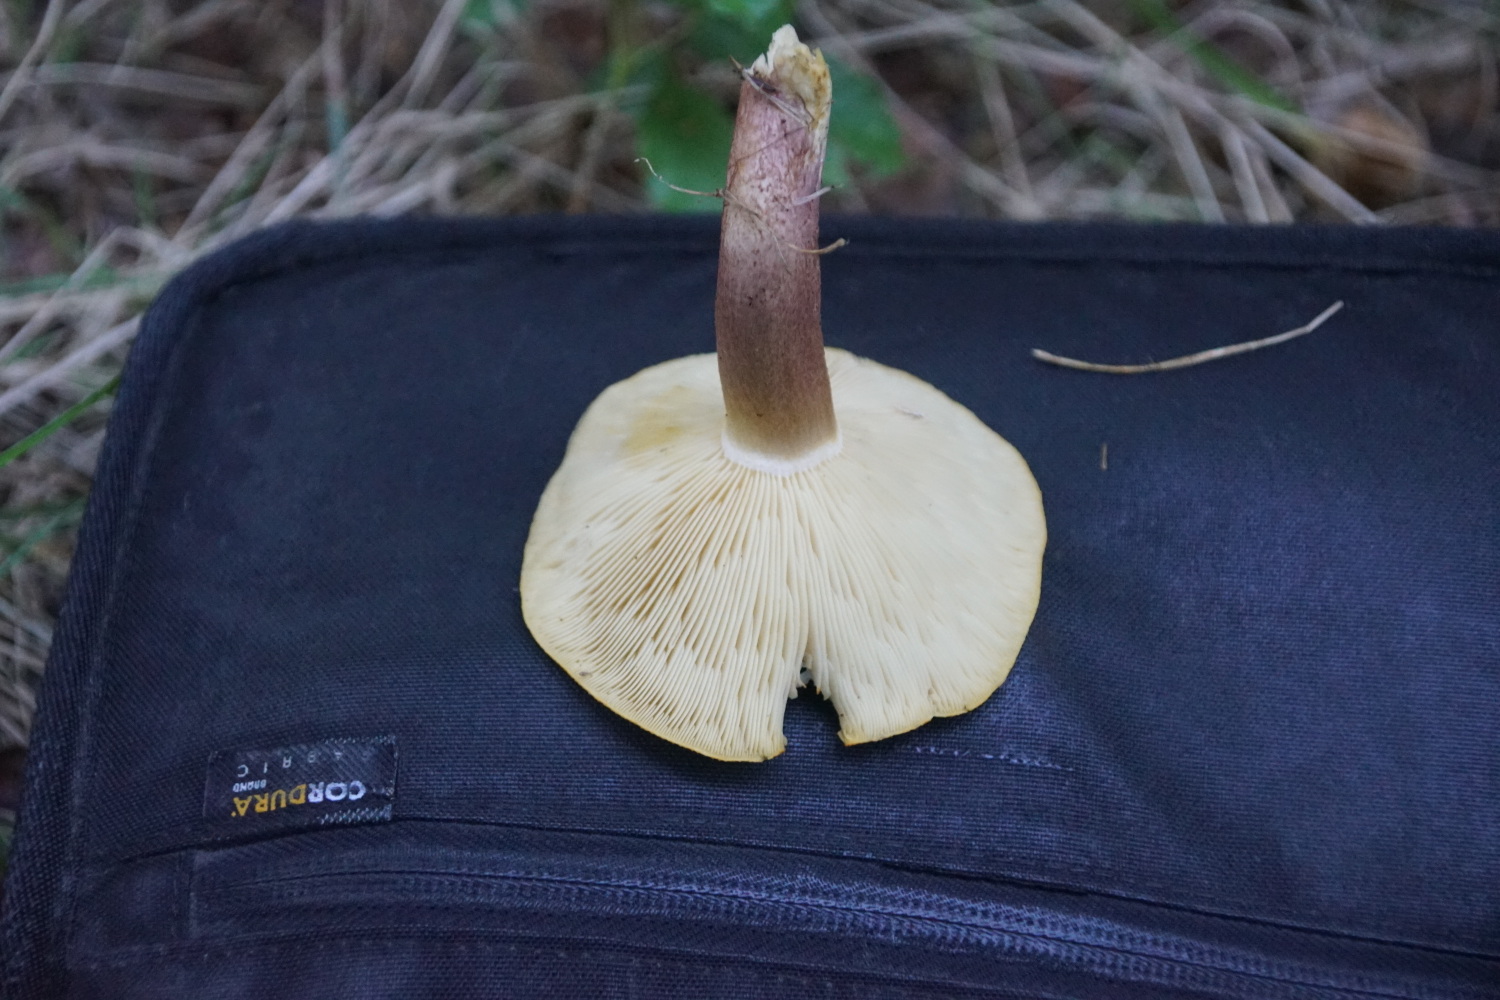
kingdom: Fungi
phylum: Basidiomycota
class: Agaricomycetes
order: Agaricales
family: Tricholomataceae
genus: Tricholomopsis
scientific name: Tricholomopsis rutilans
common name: purpur-væbnerhat
